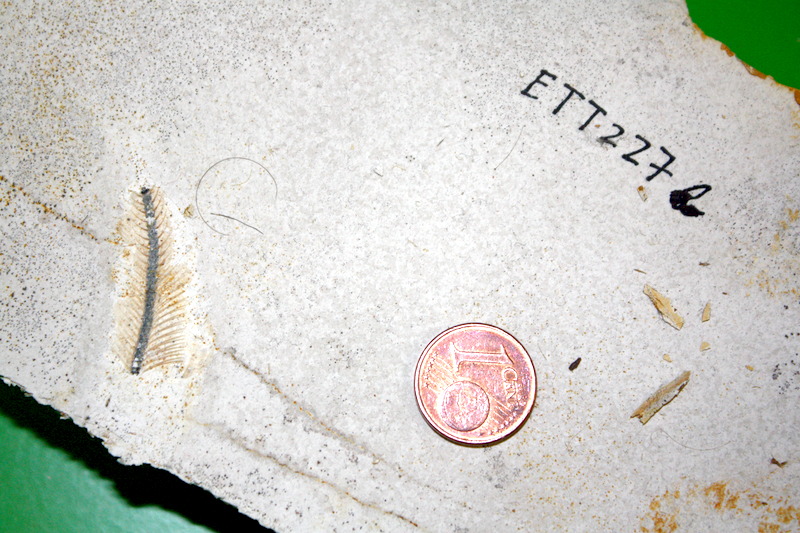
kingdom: Animalia
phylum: Chordata
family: Ascalaboidae
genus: Ebertichthys
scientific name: Ebertichthys ettlingensis
